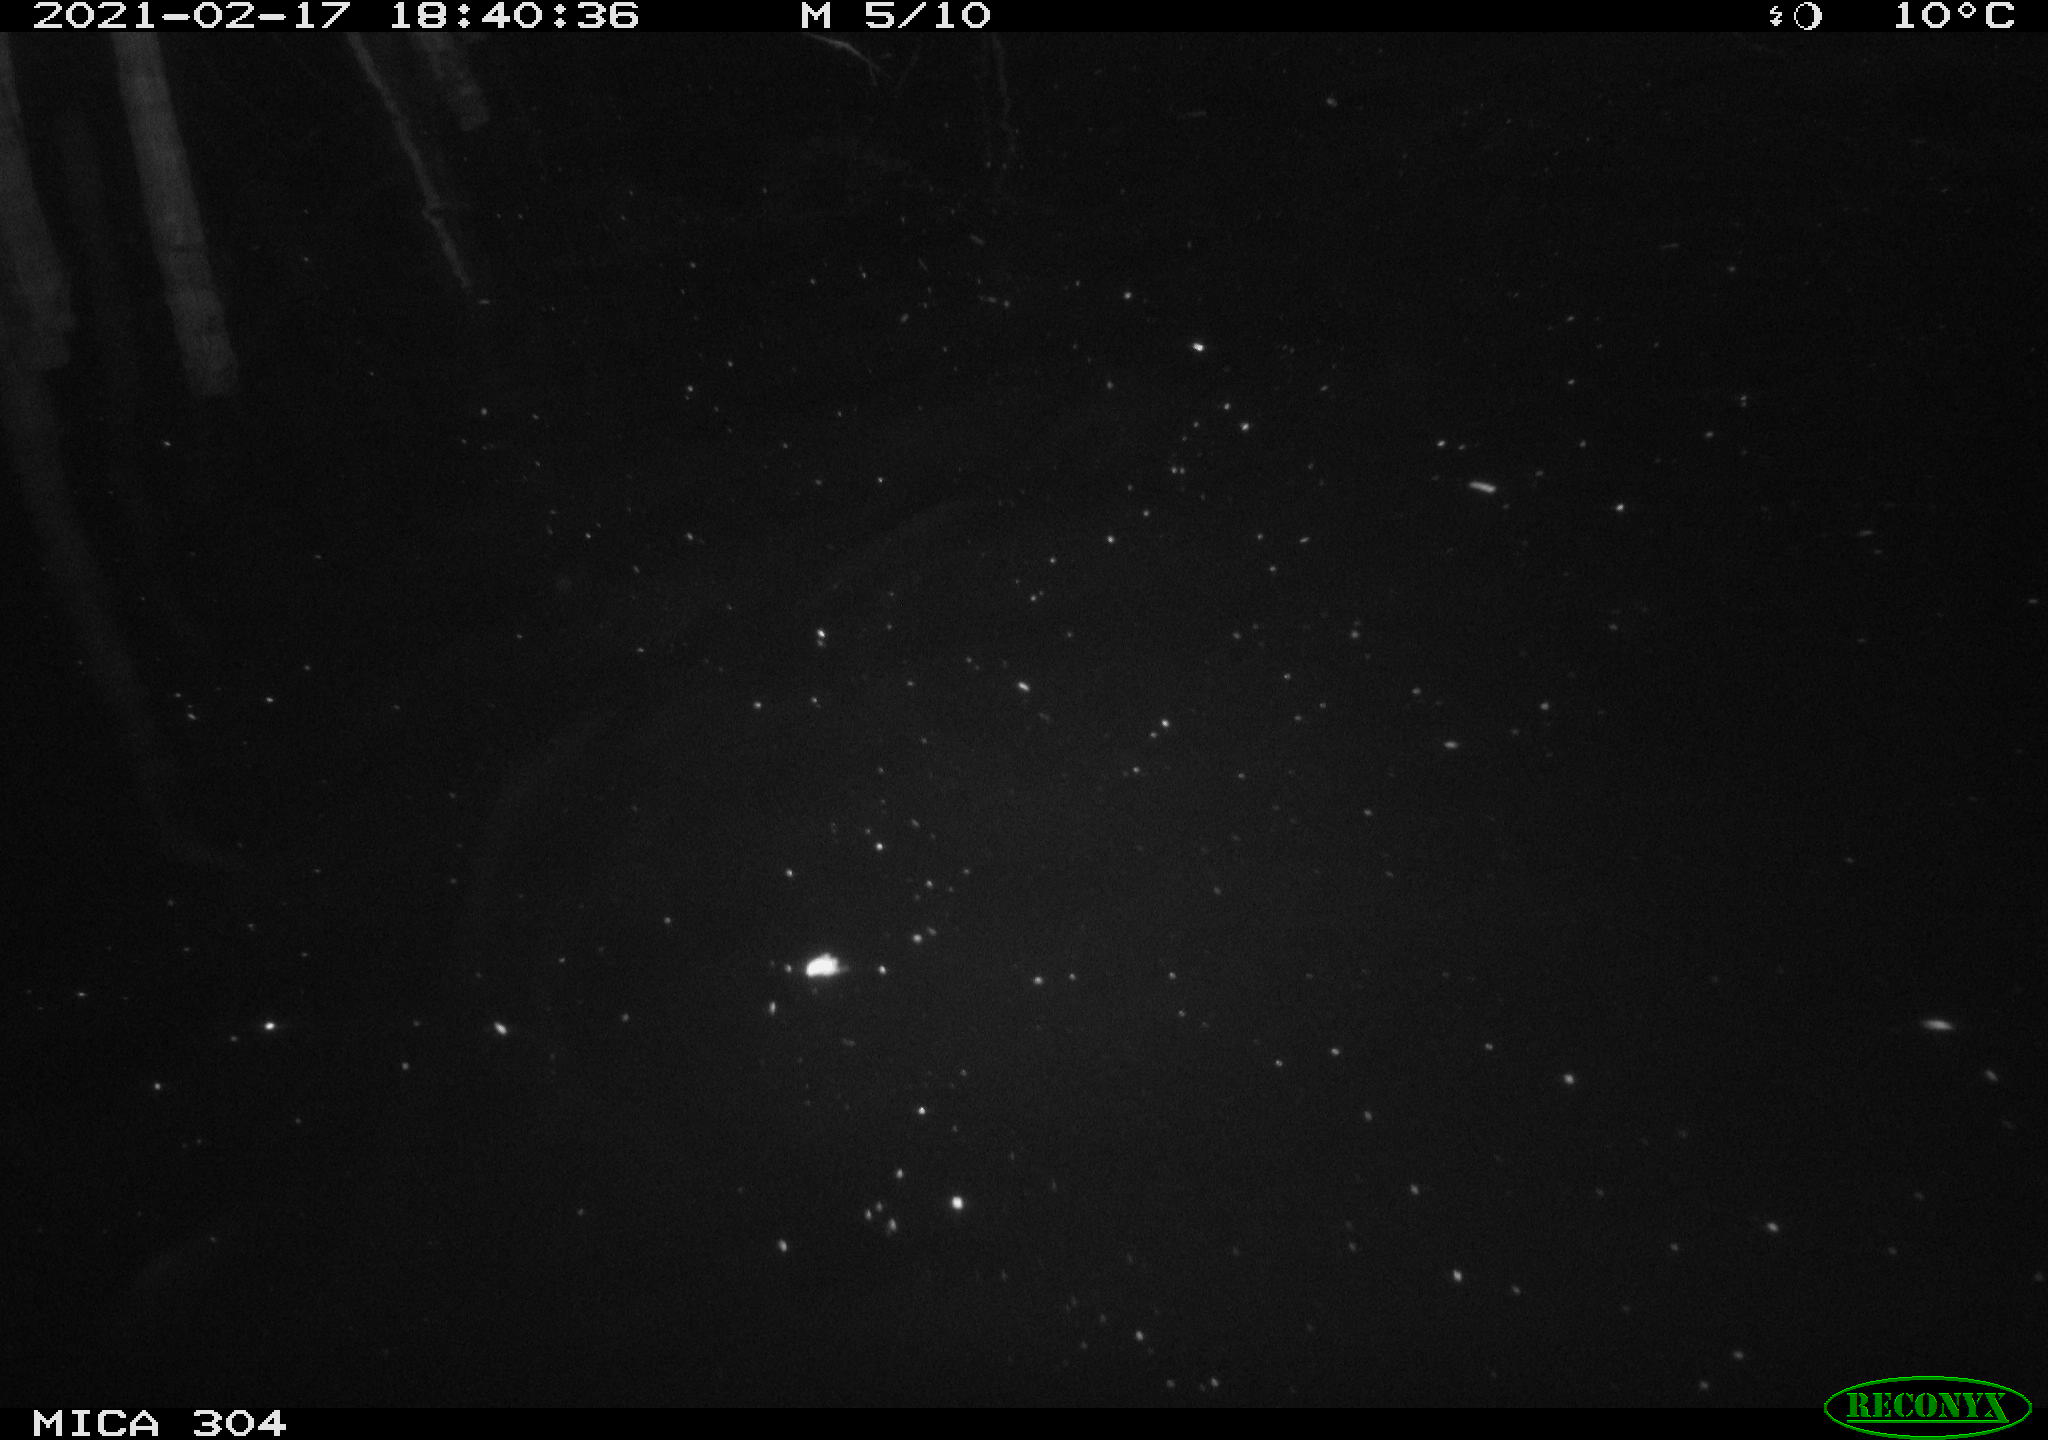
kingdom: Animalia
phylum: Chordata
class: Mammalia
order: Rodentia
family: Cricetidae
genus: Ondatra
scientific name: Ondatra zibethicus
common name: Muskrat
